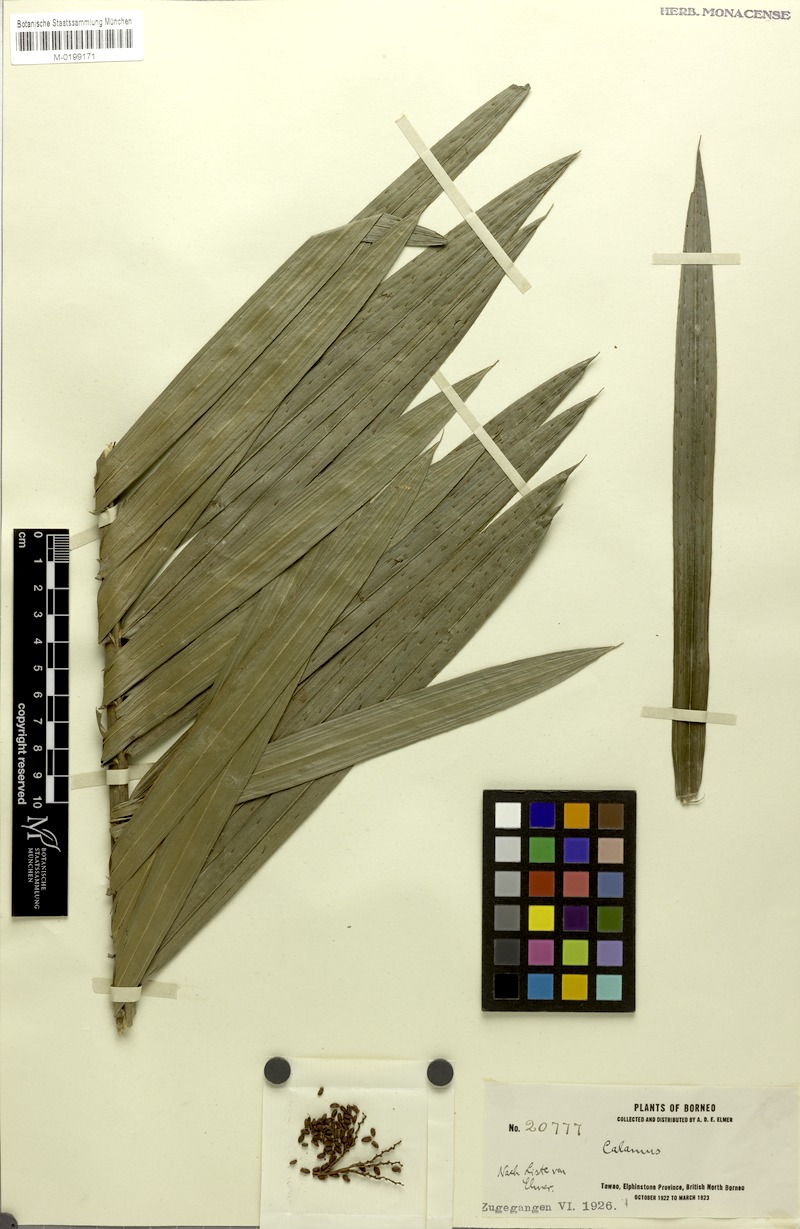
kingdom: Plantae
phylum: Tracheophyta
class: Liliopsida
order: Arecales
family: Arecaceae
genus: Calamus
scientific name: Calamus sparsiflorus
